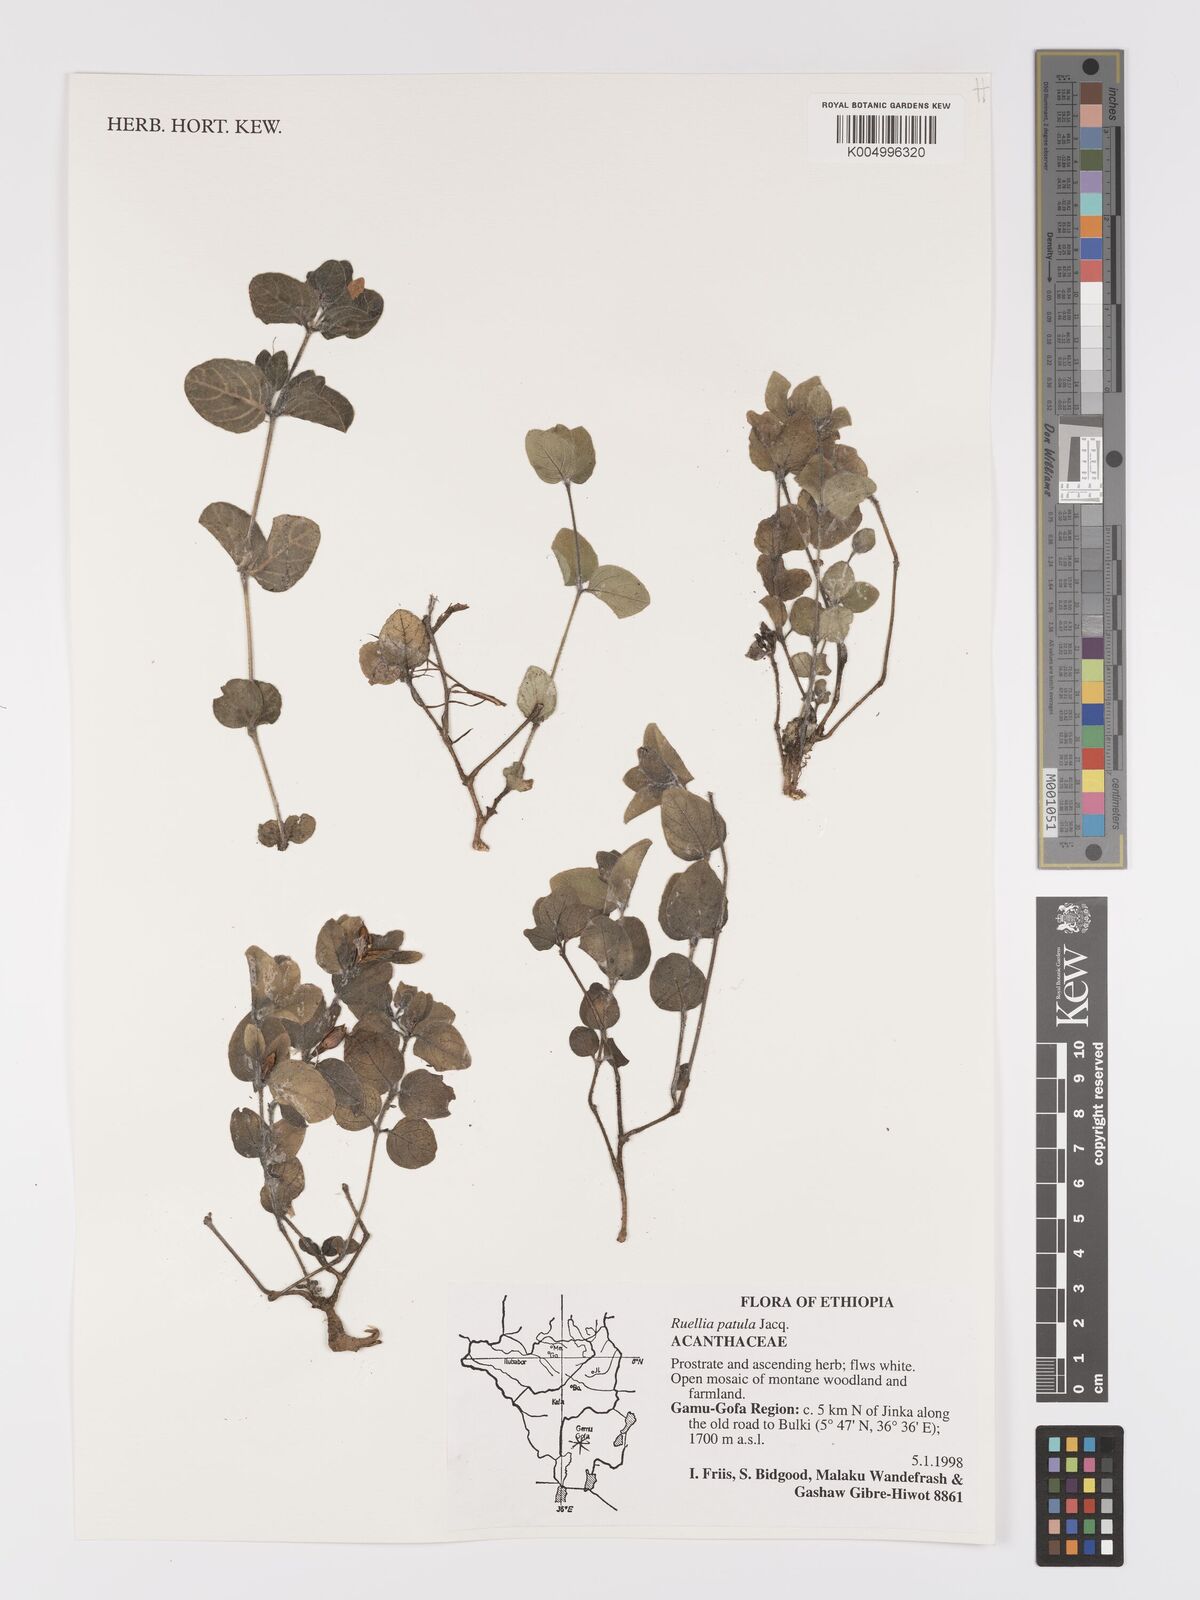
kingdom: Plantae
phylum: Tracheophyta
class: Magnoliopsida
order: Lamiales
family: Acanthaceae
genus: Ruellia
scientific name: Ruellia patula
